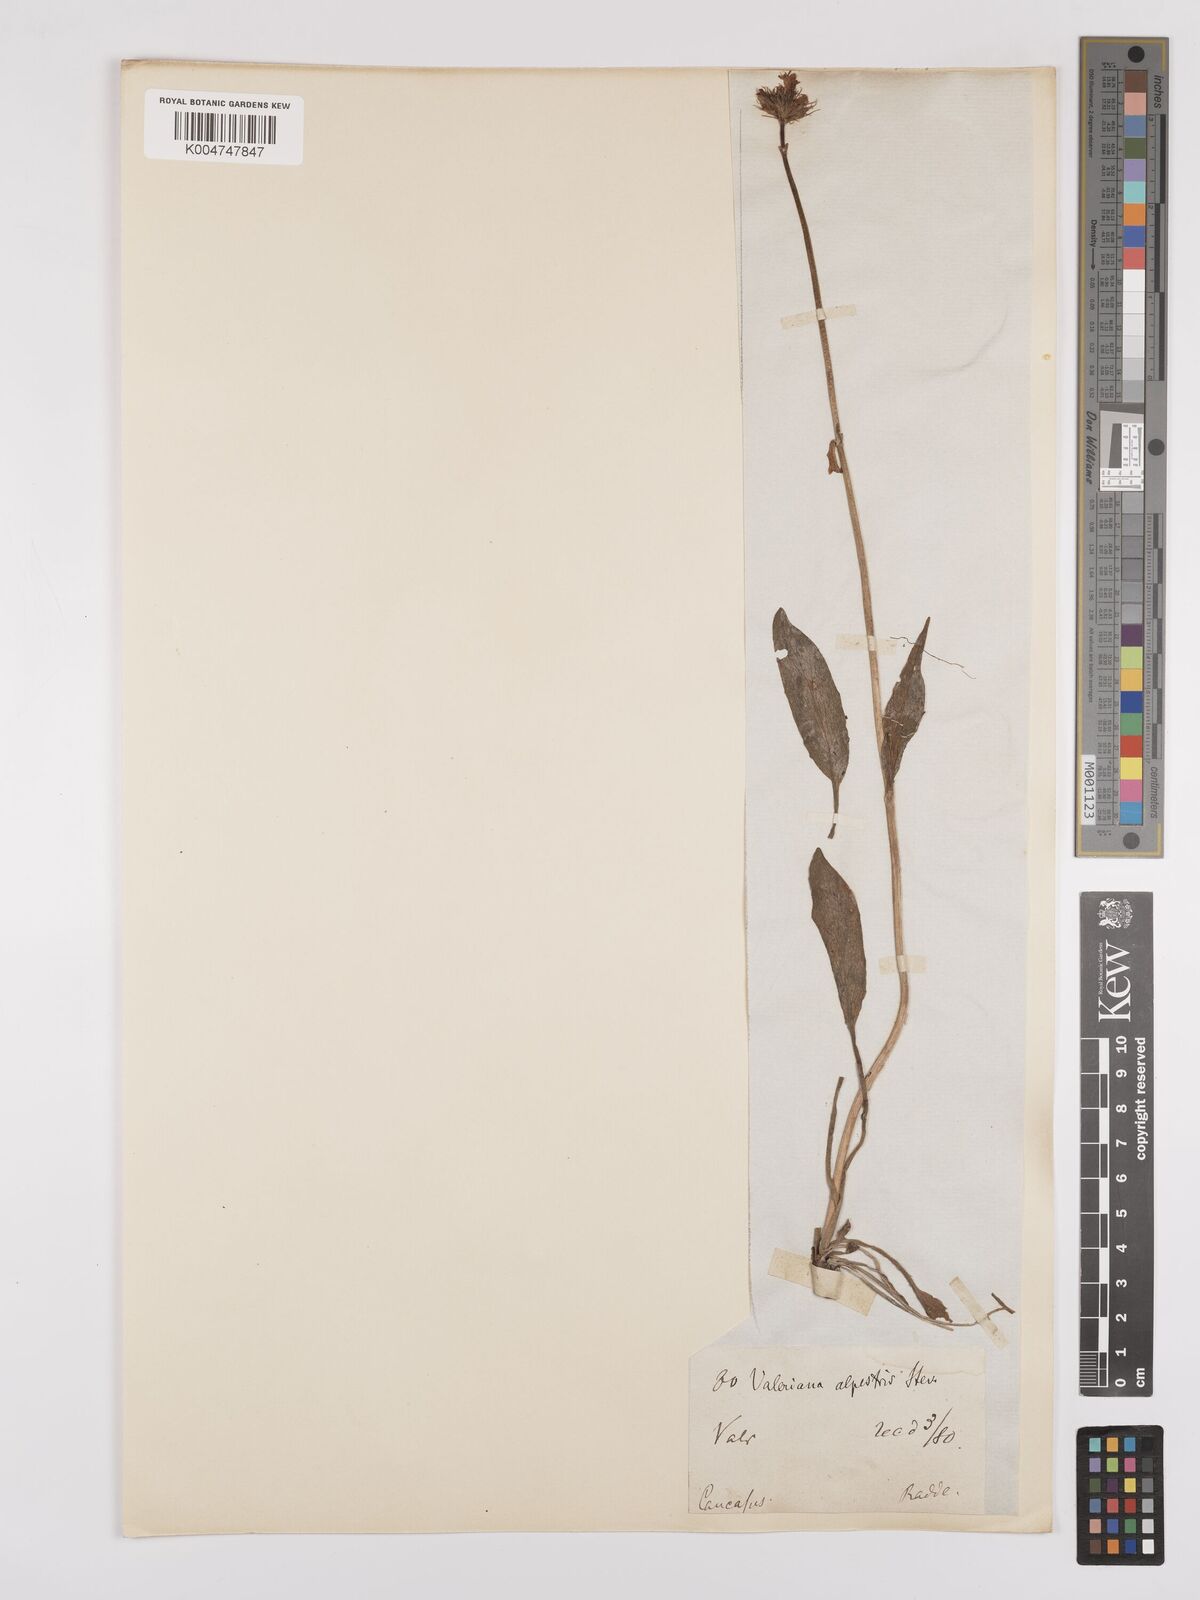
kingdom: Plantae
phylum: Tracheophyta
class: Magnoliopsida
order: Dipsacales
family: Caprifoliaceae
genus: Valeriana
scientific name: Valeriana alpestris
